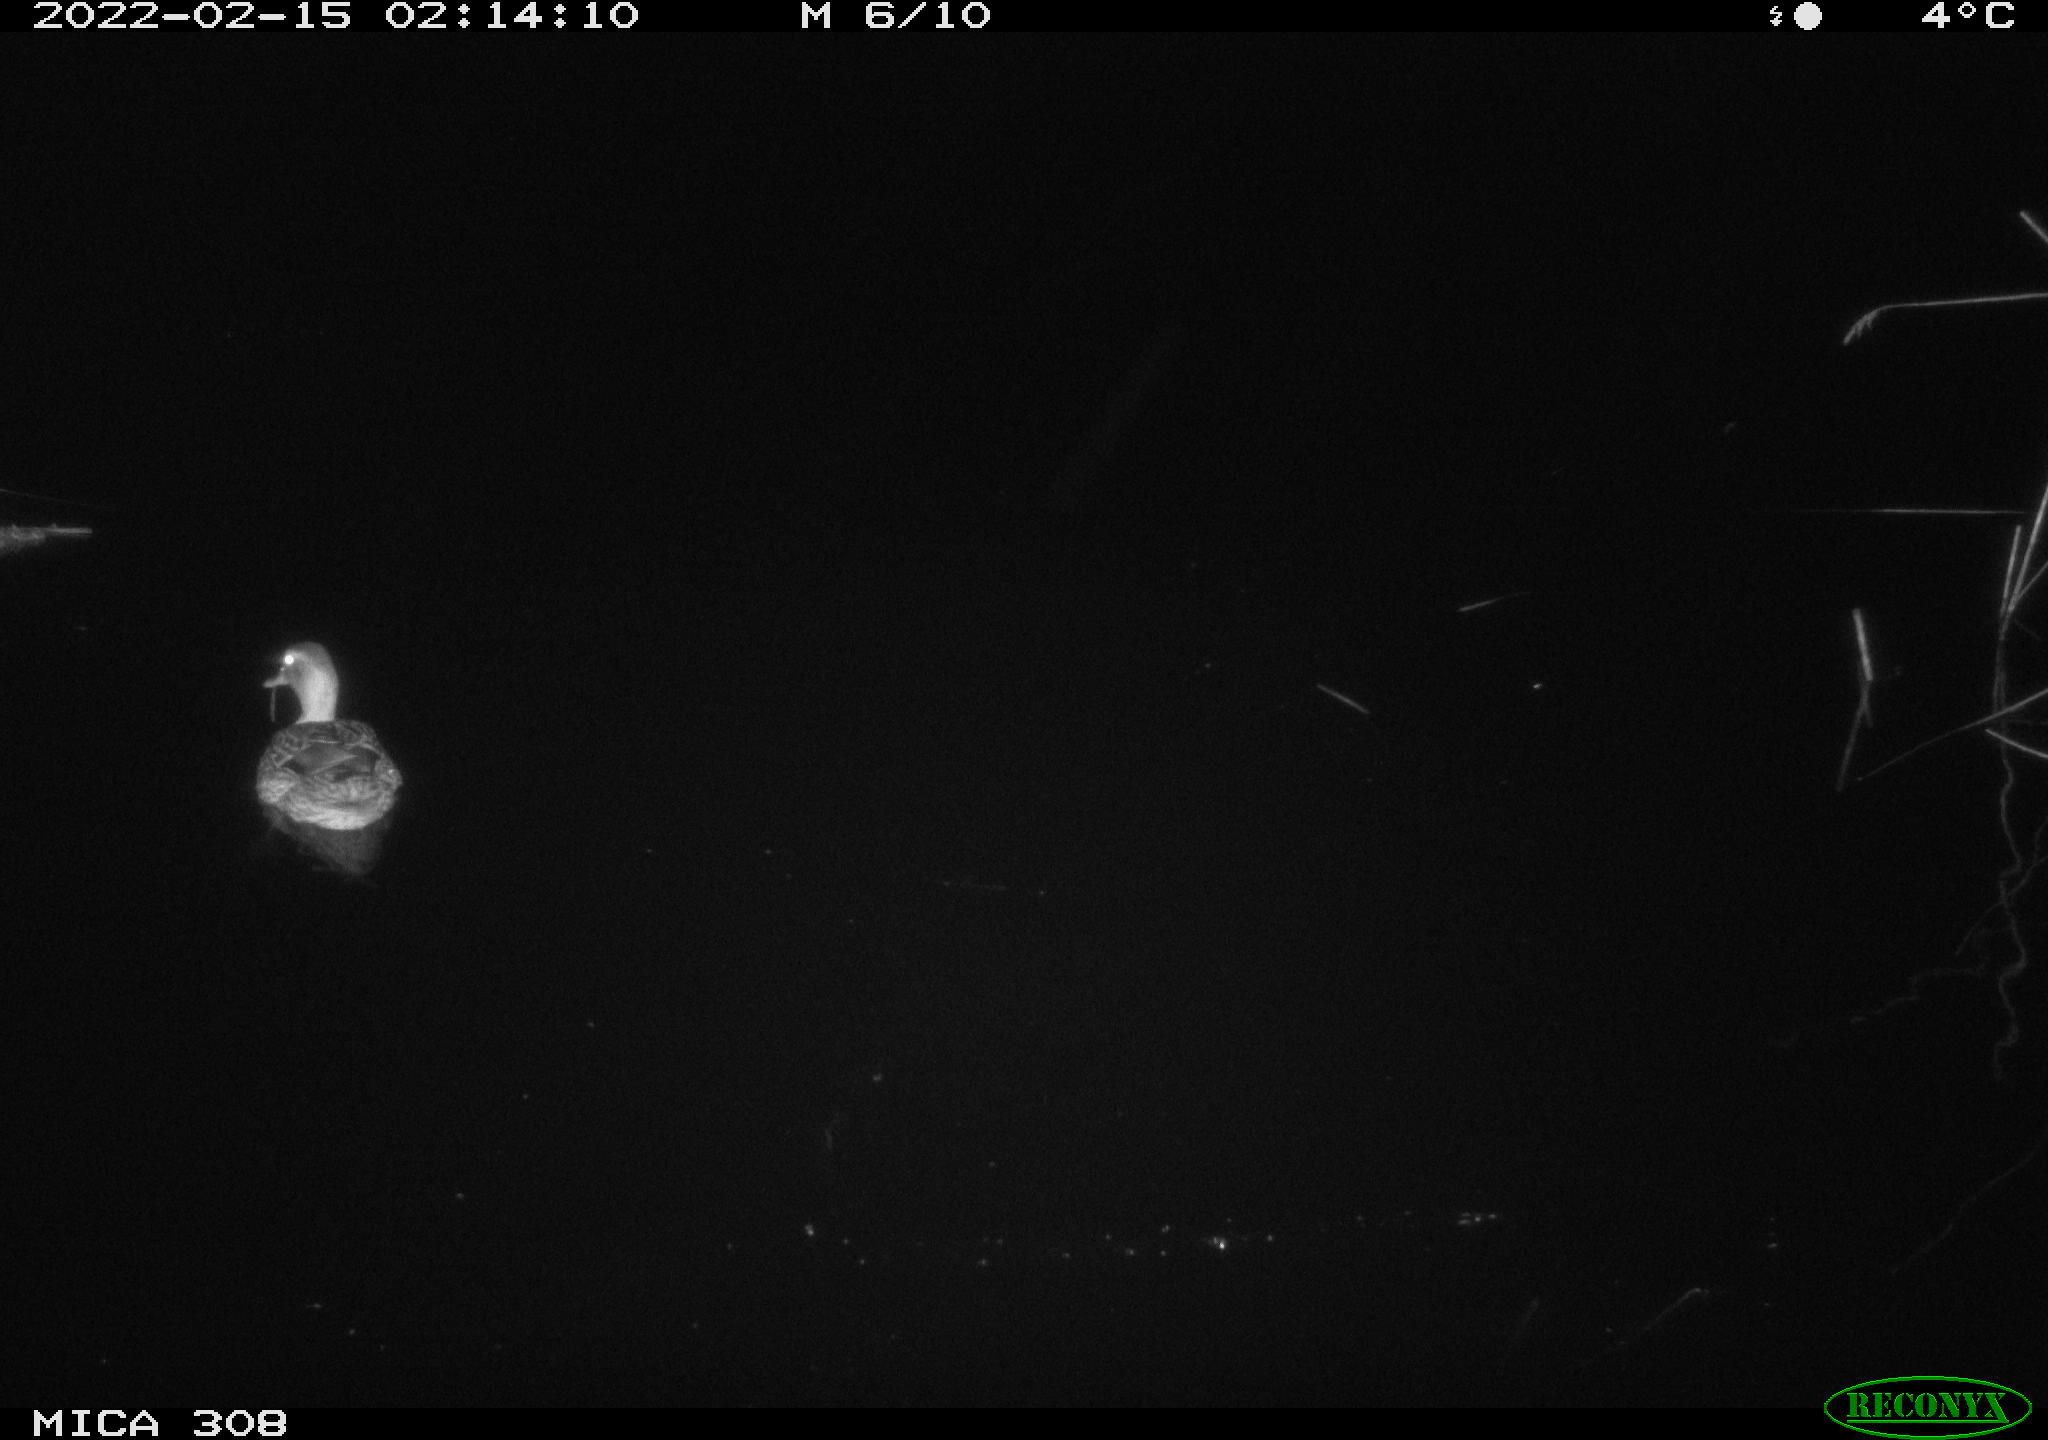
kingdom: Animalia
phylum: Chordata
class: Aves
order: Anseriformes
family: Anatidae
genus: Anas
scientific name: Anas platyrhynchos
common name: Mallard
